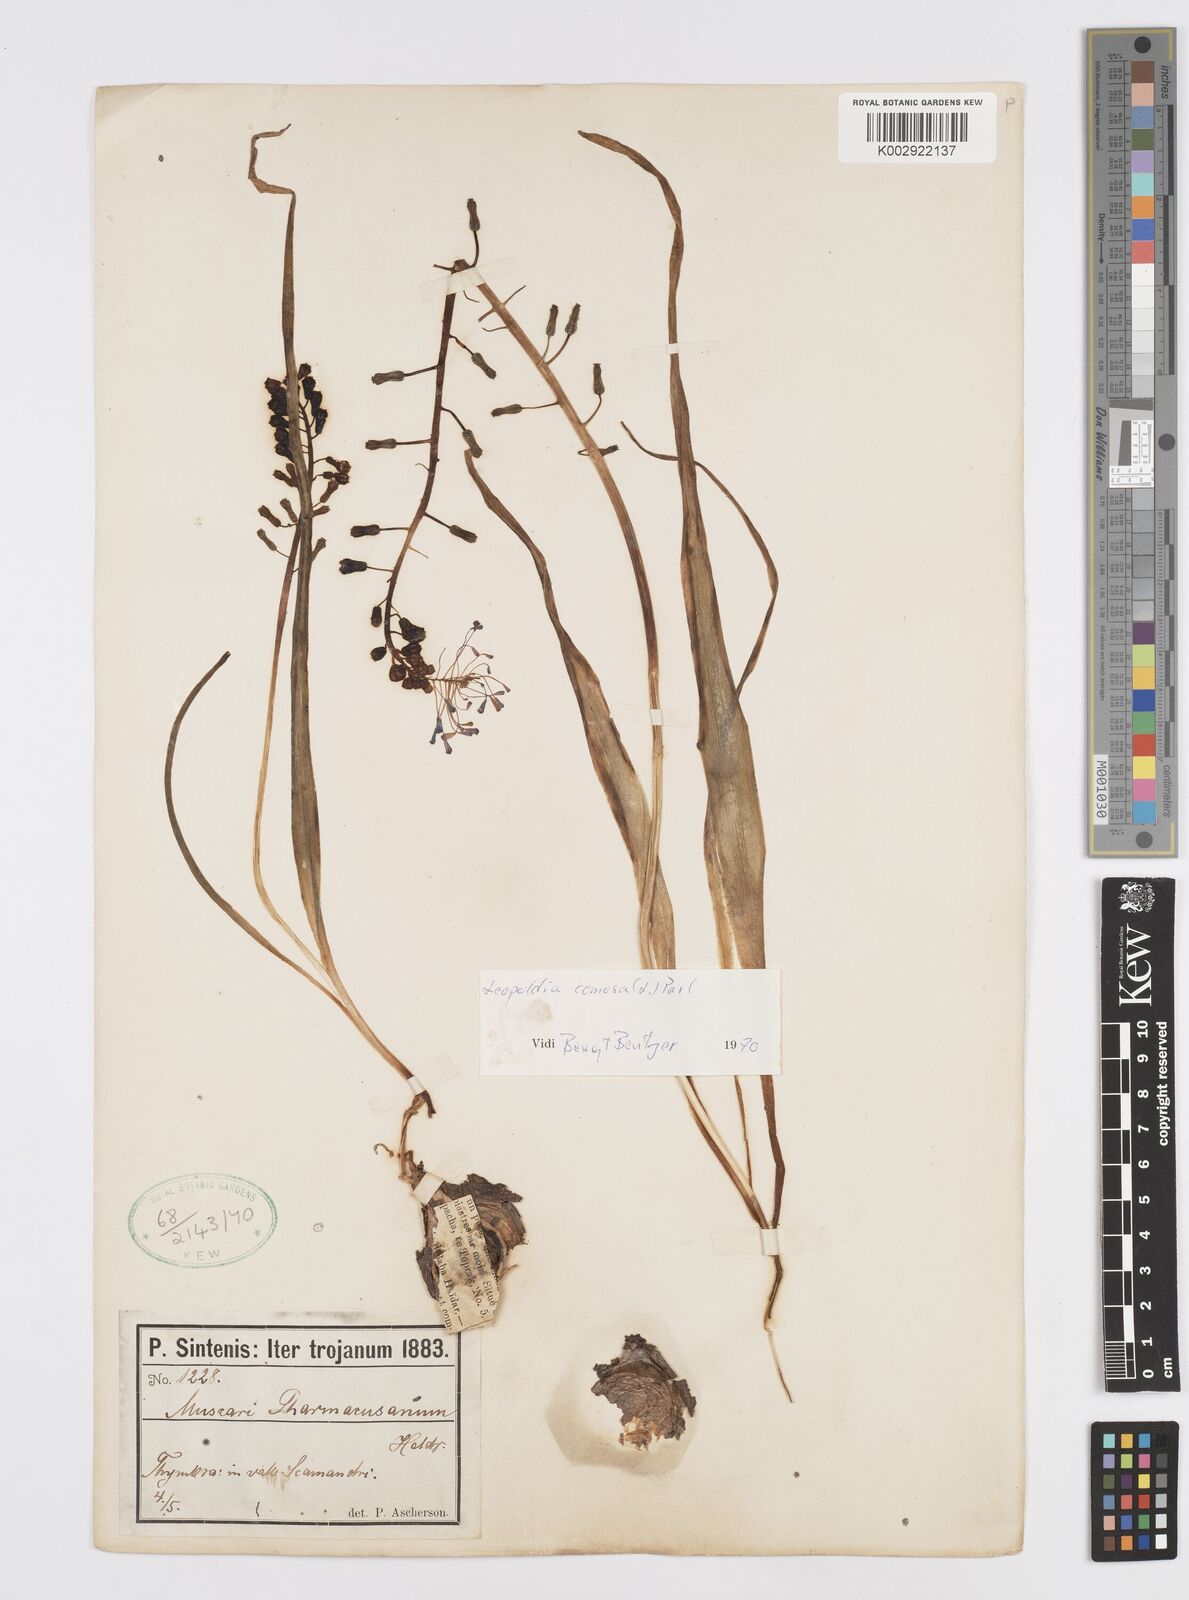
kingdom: Plantae
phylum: Tracheophyta
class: Liliopsida
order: Asparagales
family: Asparagaceae
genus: Muscari
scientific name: Muscari comosum
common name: Tassel hyacinth
